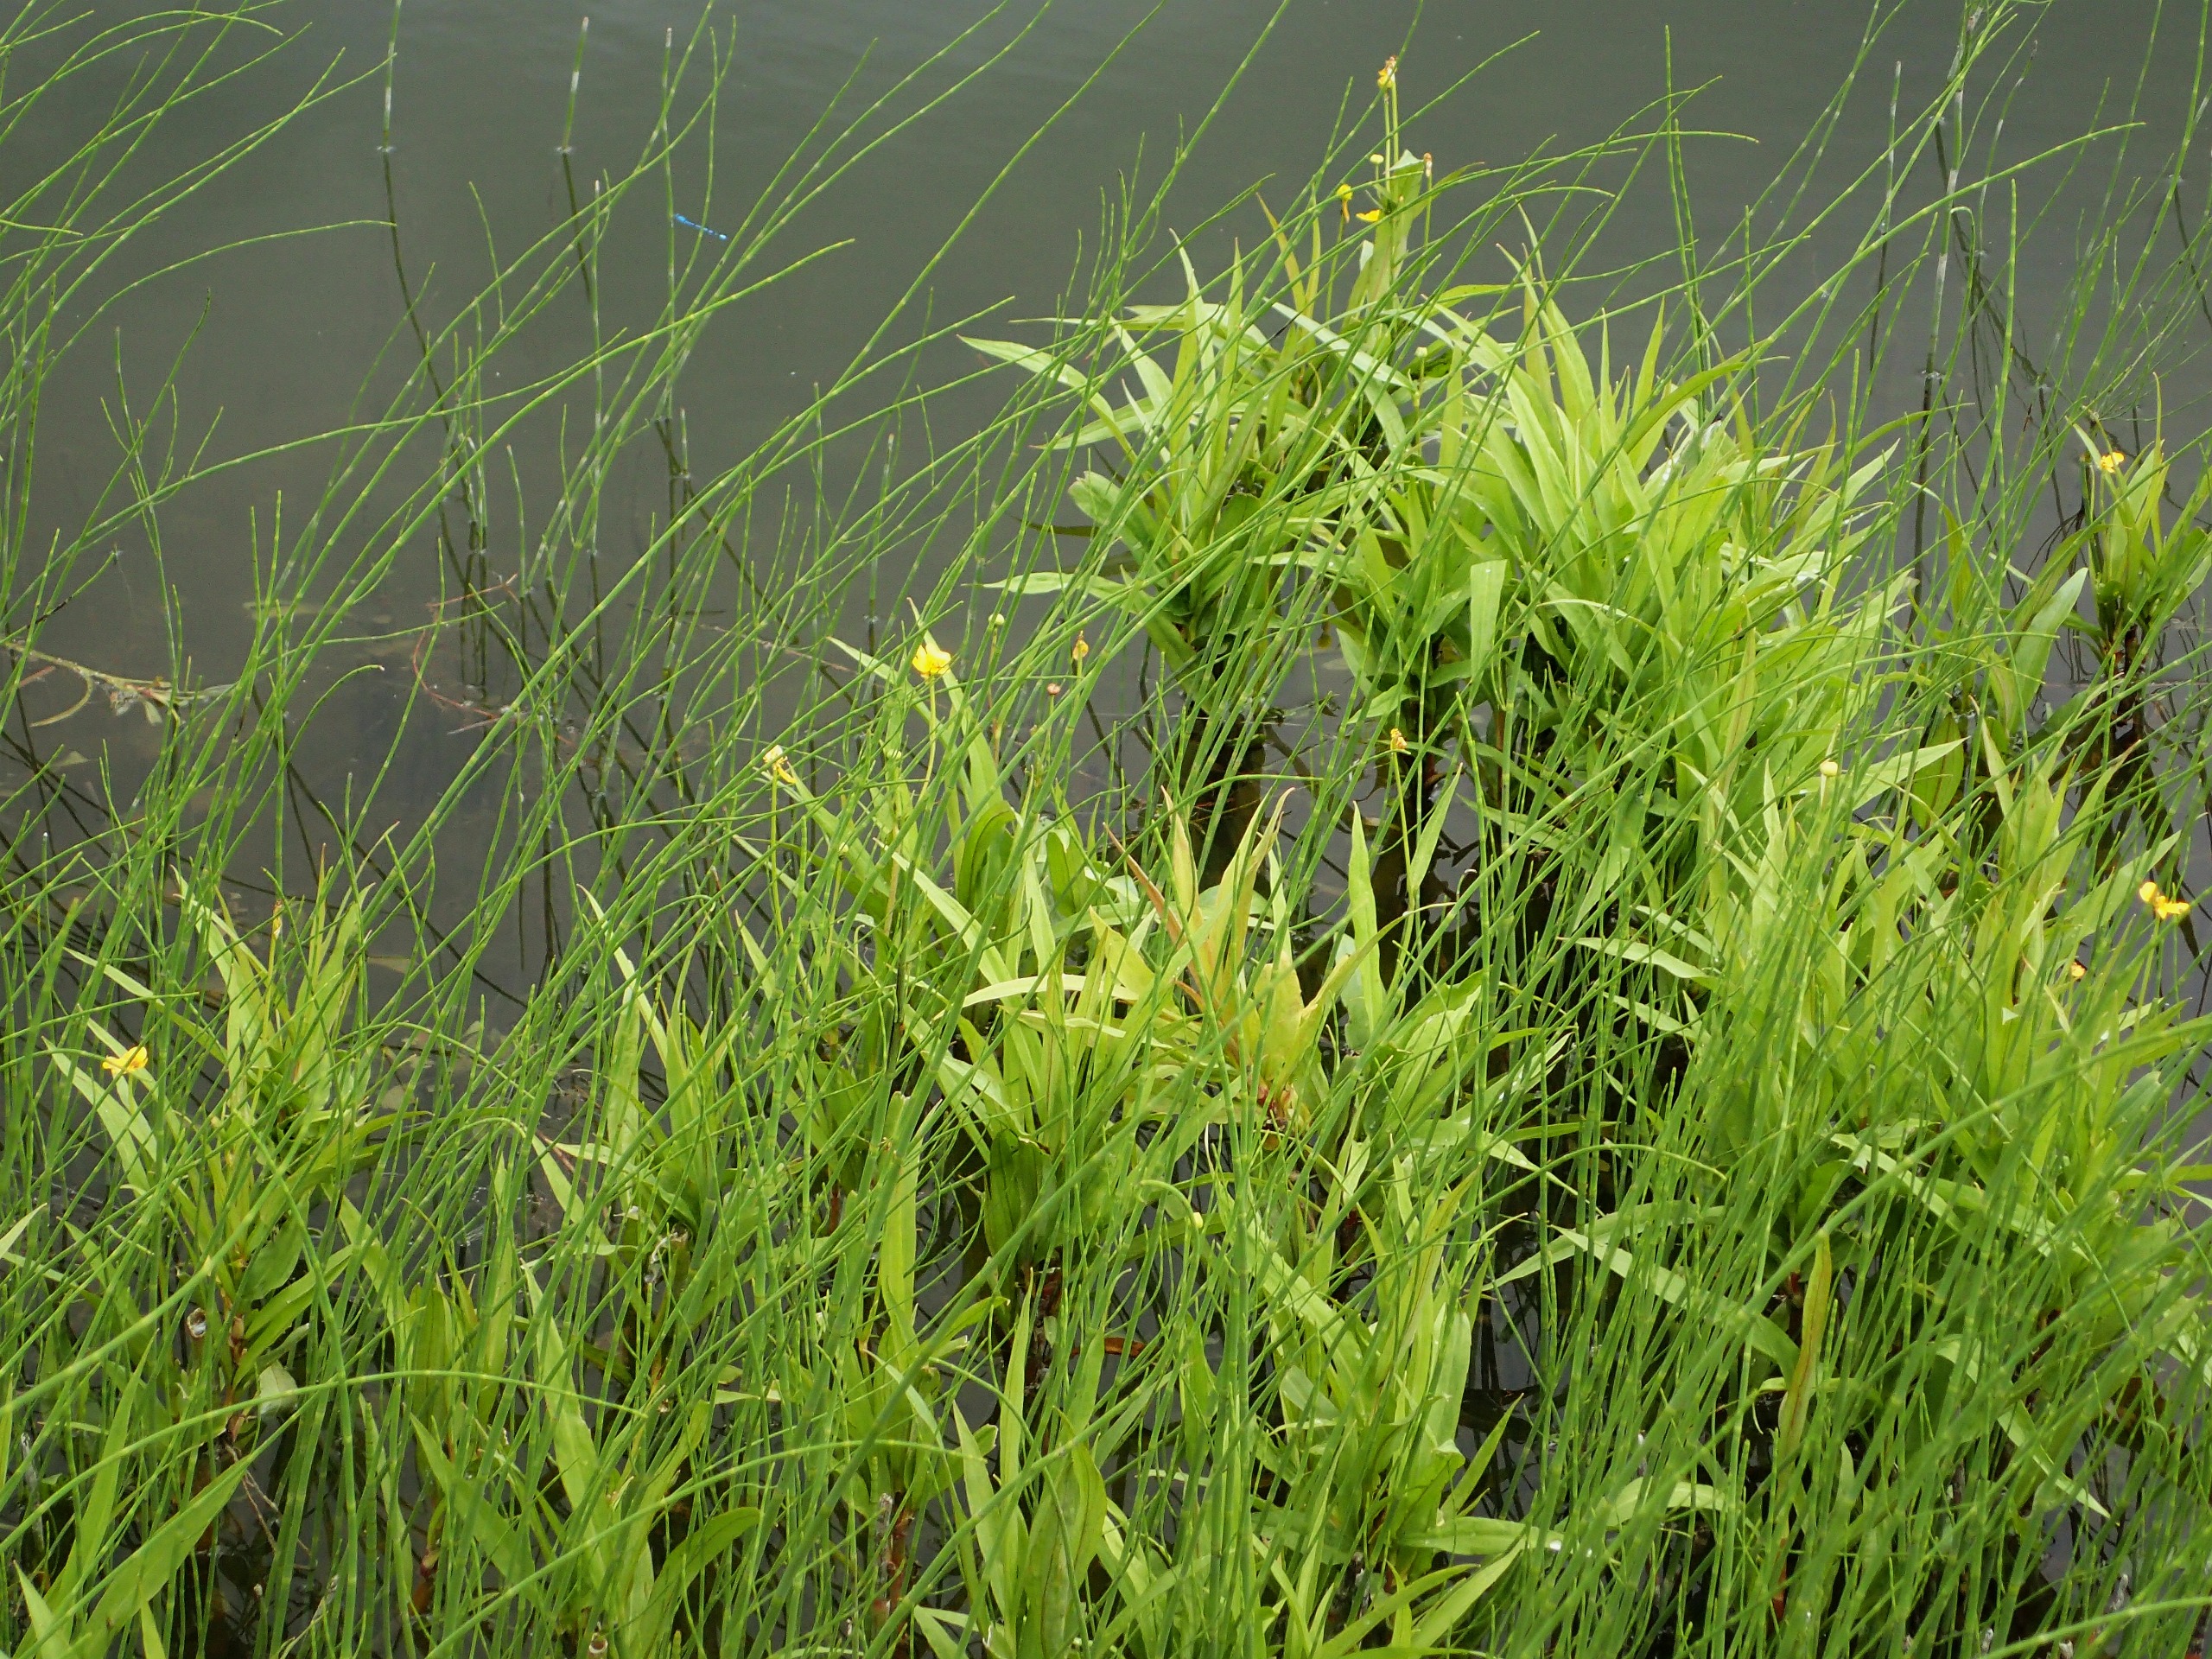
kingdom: Plantae
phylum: Tracheophyta
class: Magnoliopsida
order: Ranunculales
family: Ranunculaceae
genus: Ranunculus
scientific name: Ranunculus lingua
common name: Langbladet ranunkel
